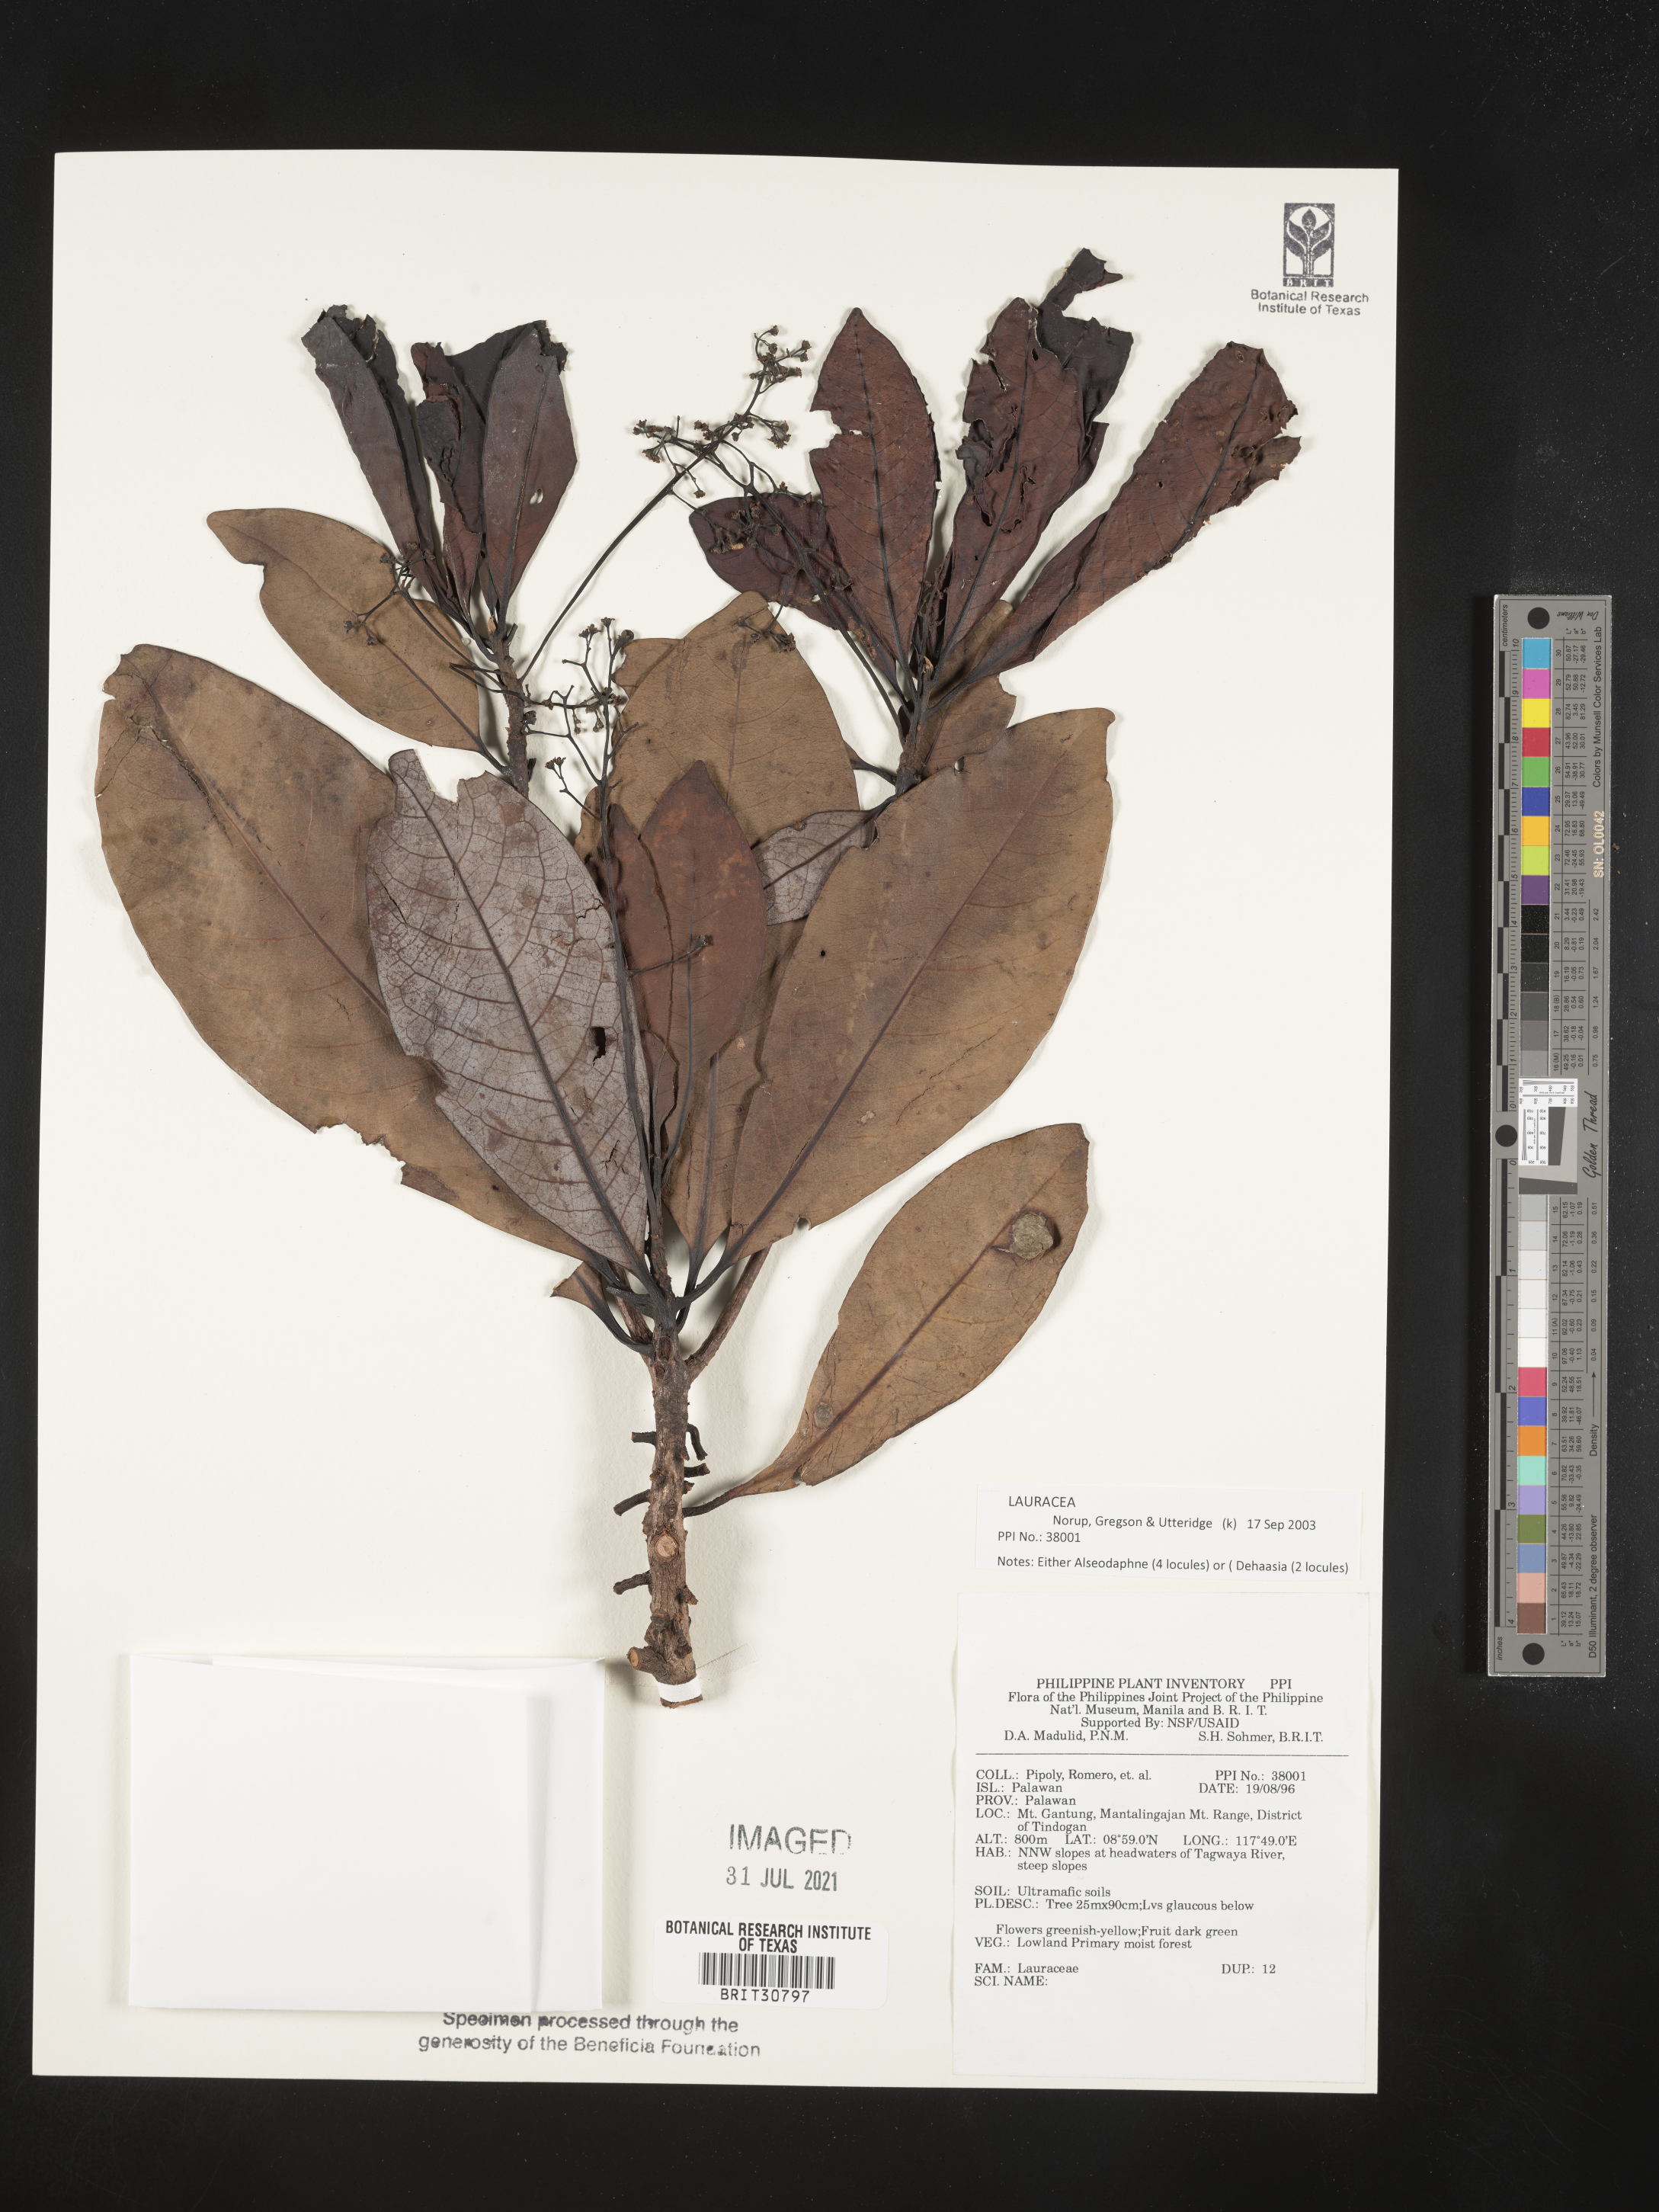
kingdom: Plantae
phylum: Tracheophyta
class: Magnoliopsida
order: Laurales
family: Lauraceae
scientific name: Lauraceae
